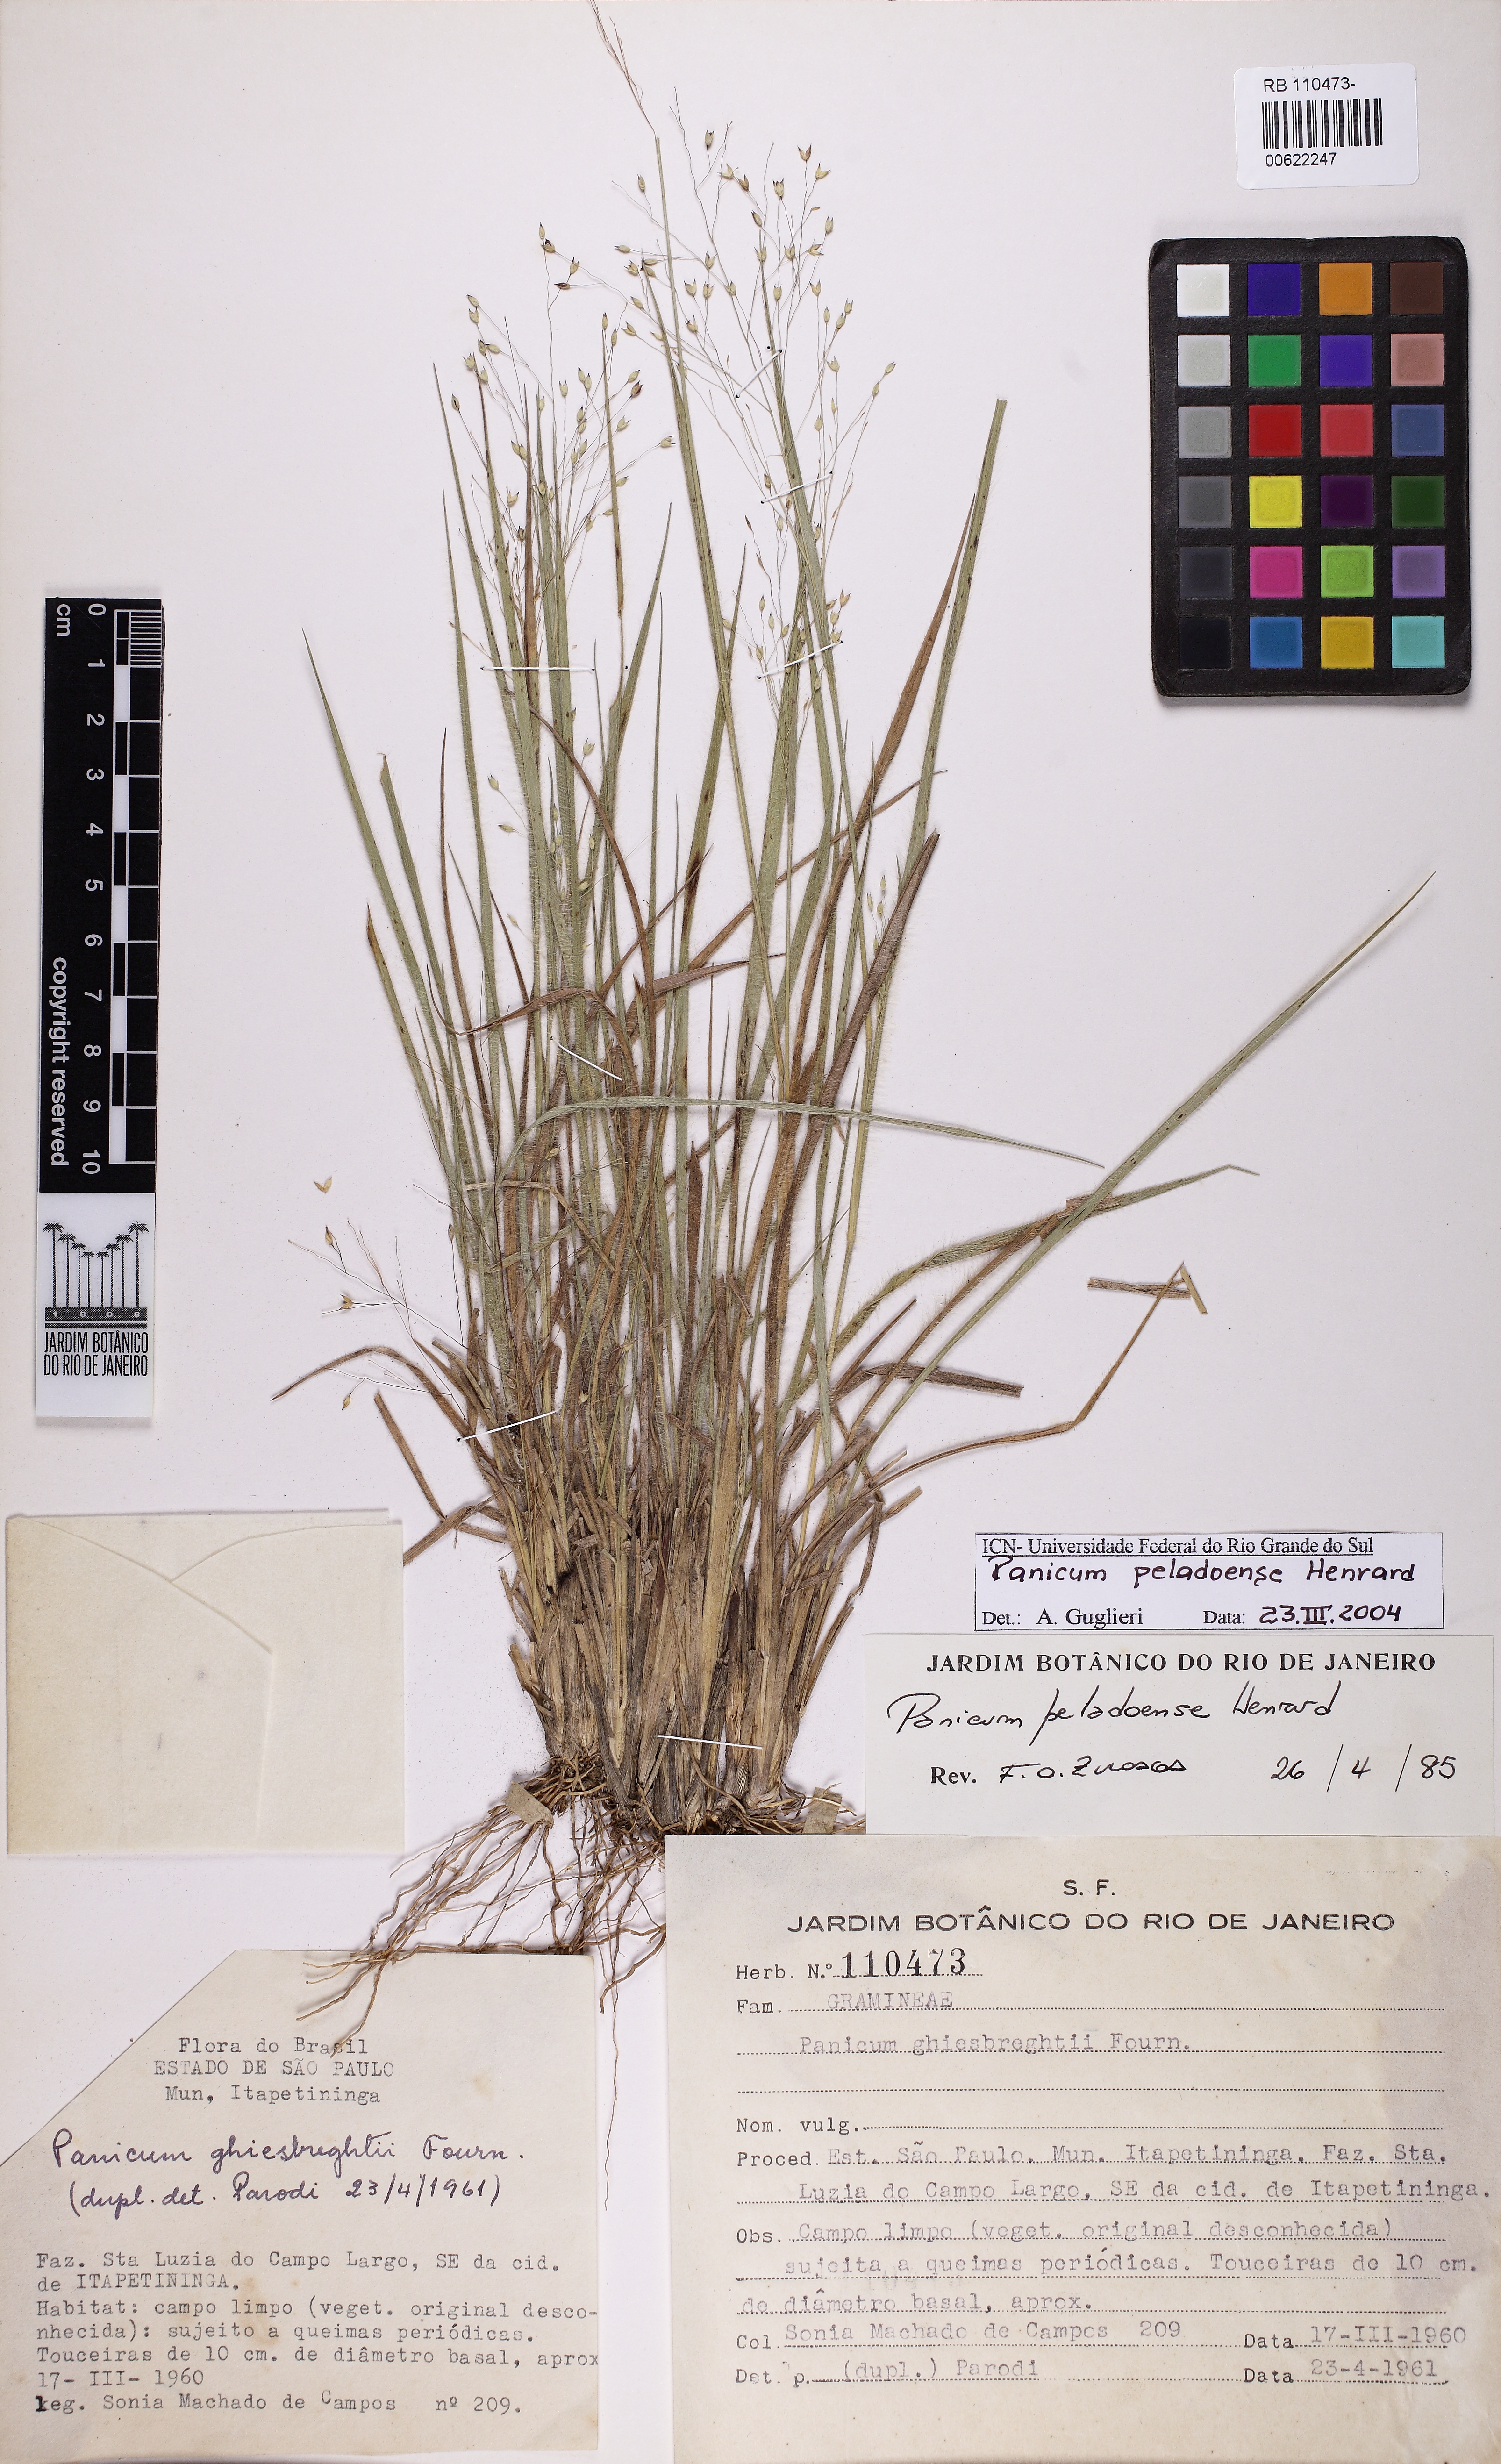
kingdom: Plantae
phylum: Tracheophyta
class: Liliopsida
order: Poales
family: Poaceae
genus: Panicum
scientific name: Panicum peladoense
